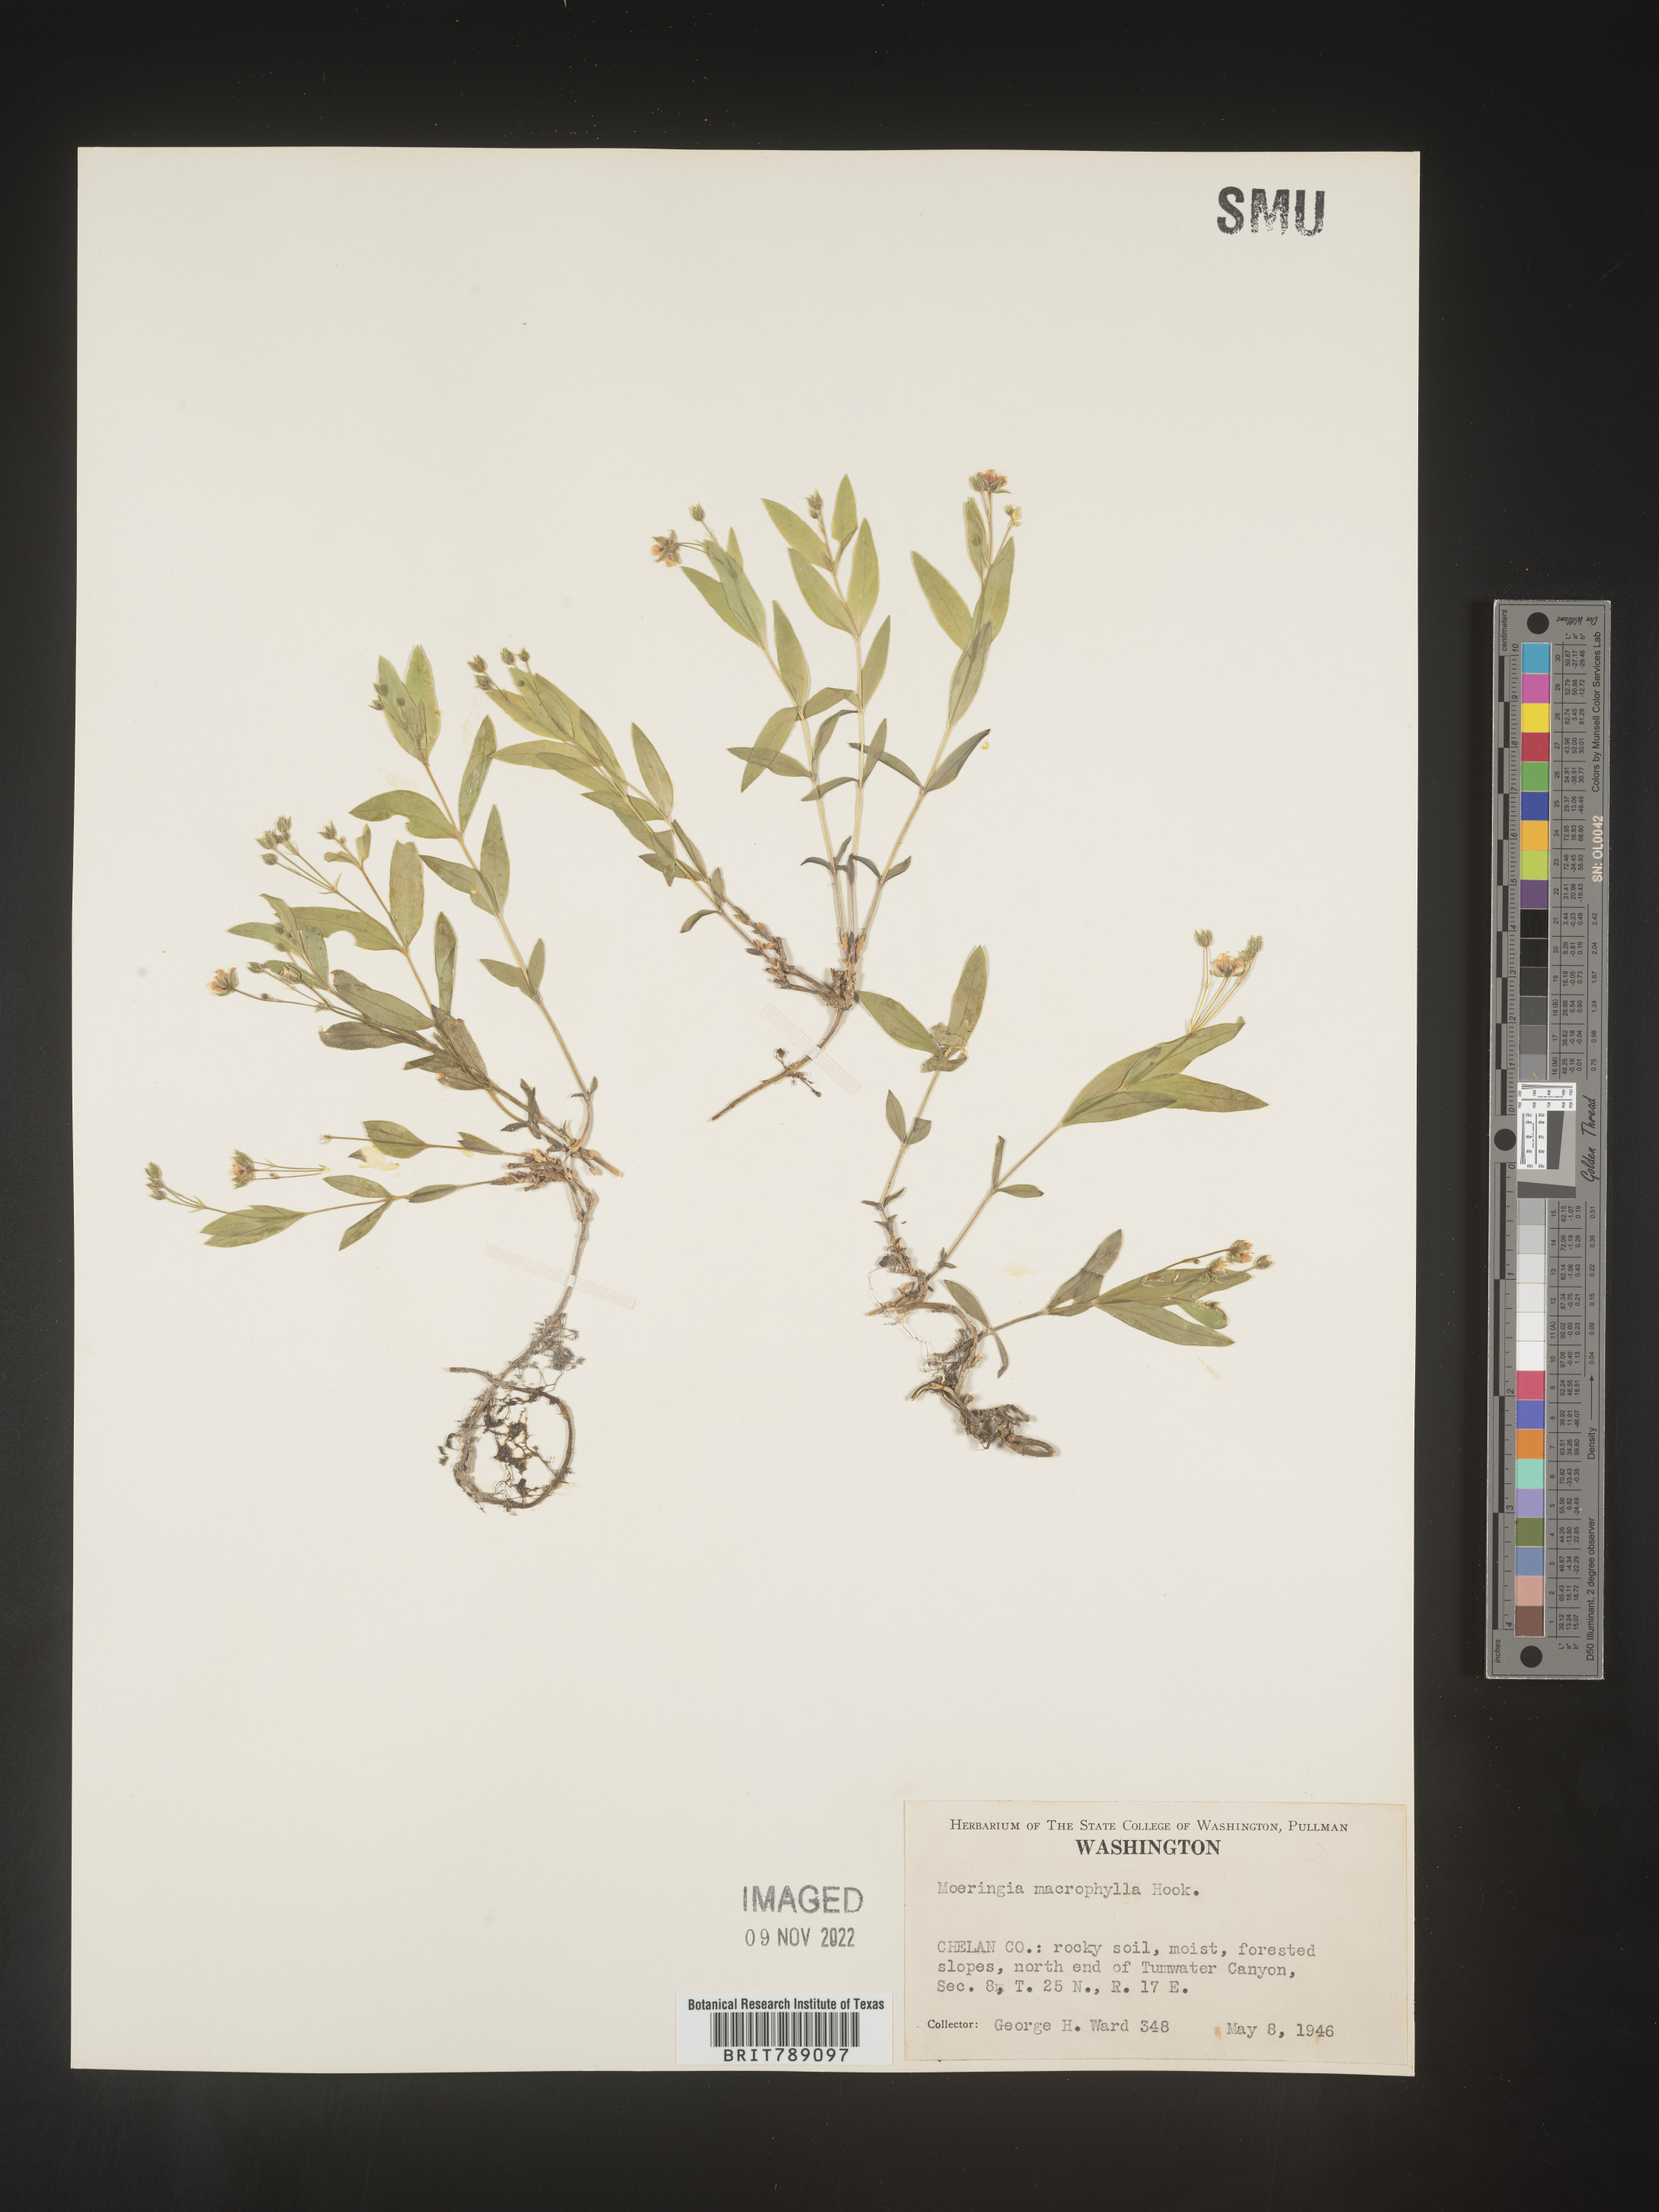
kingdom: Plantae
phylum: Tracheophyta
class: Magnoliopsida
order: Caryophyllales
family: Caryophyllaceae
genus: Arenaria
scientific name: Arenaria
